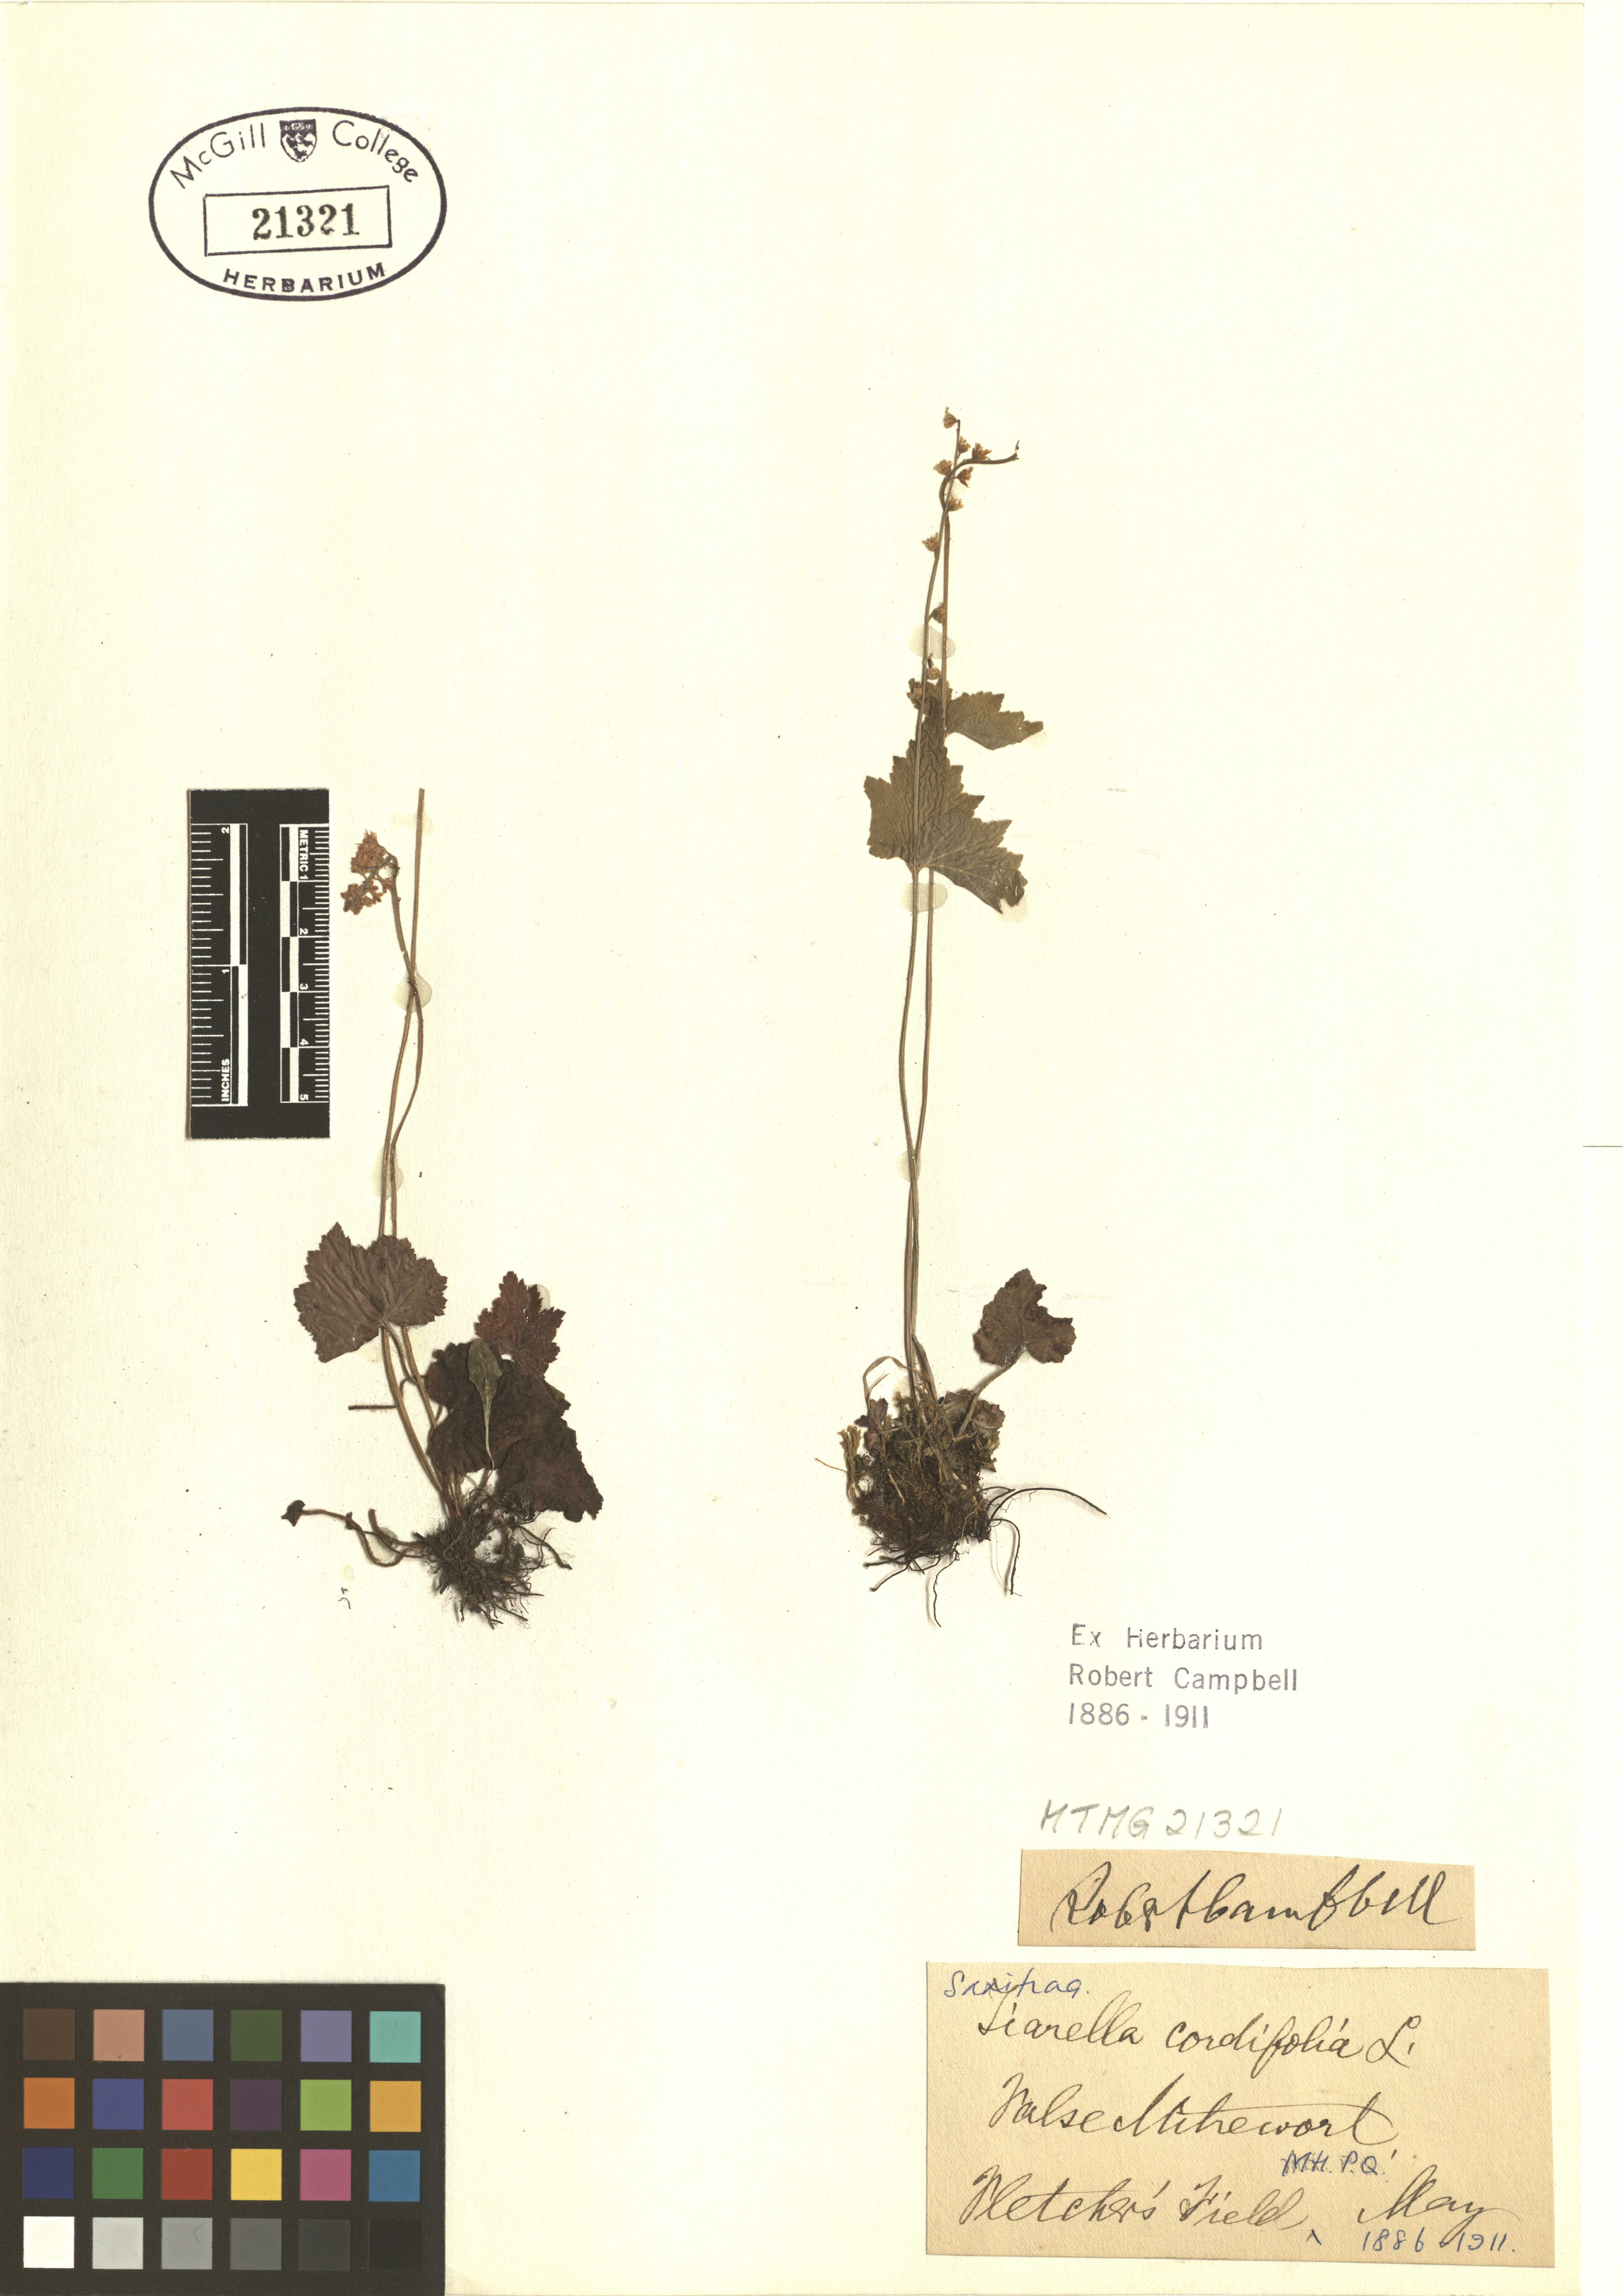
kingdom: Plantae
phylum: Tracheophyta
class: Magnoliopsida
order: Saxifragales
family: Saxifragaceae
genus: Tiarella
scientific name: Tiarella cordifolia
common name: Foamflower
